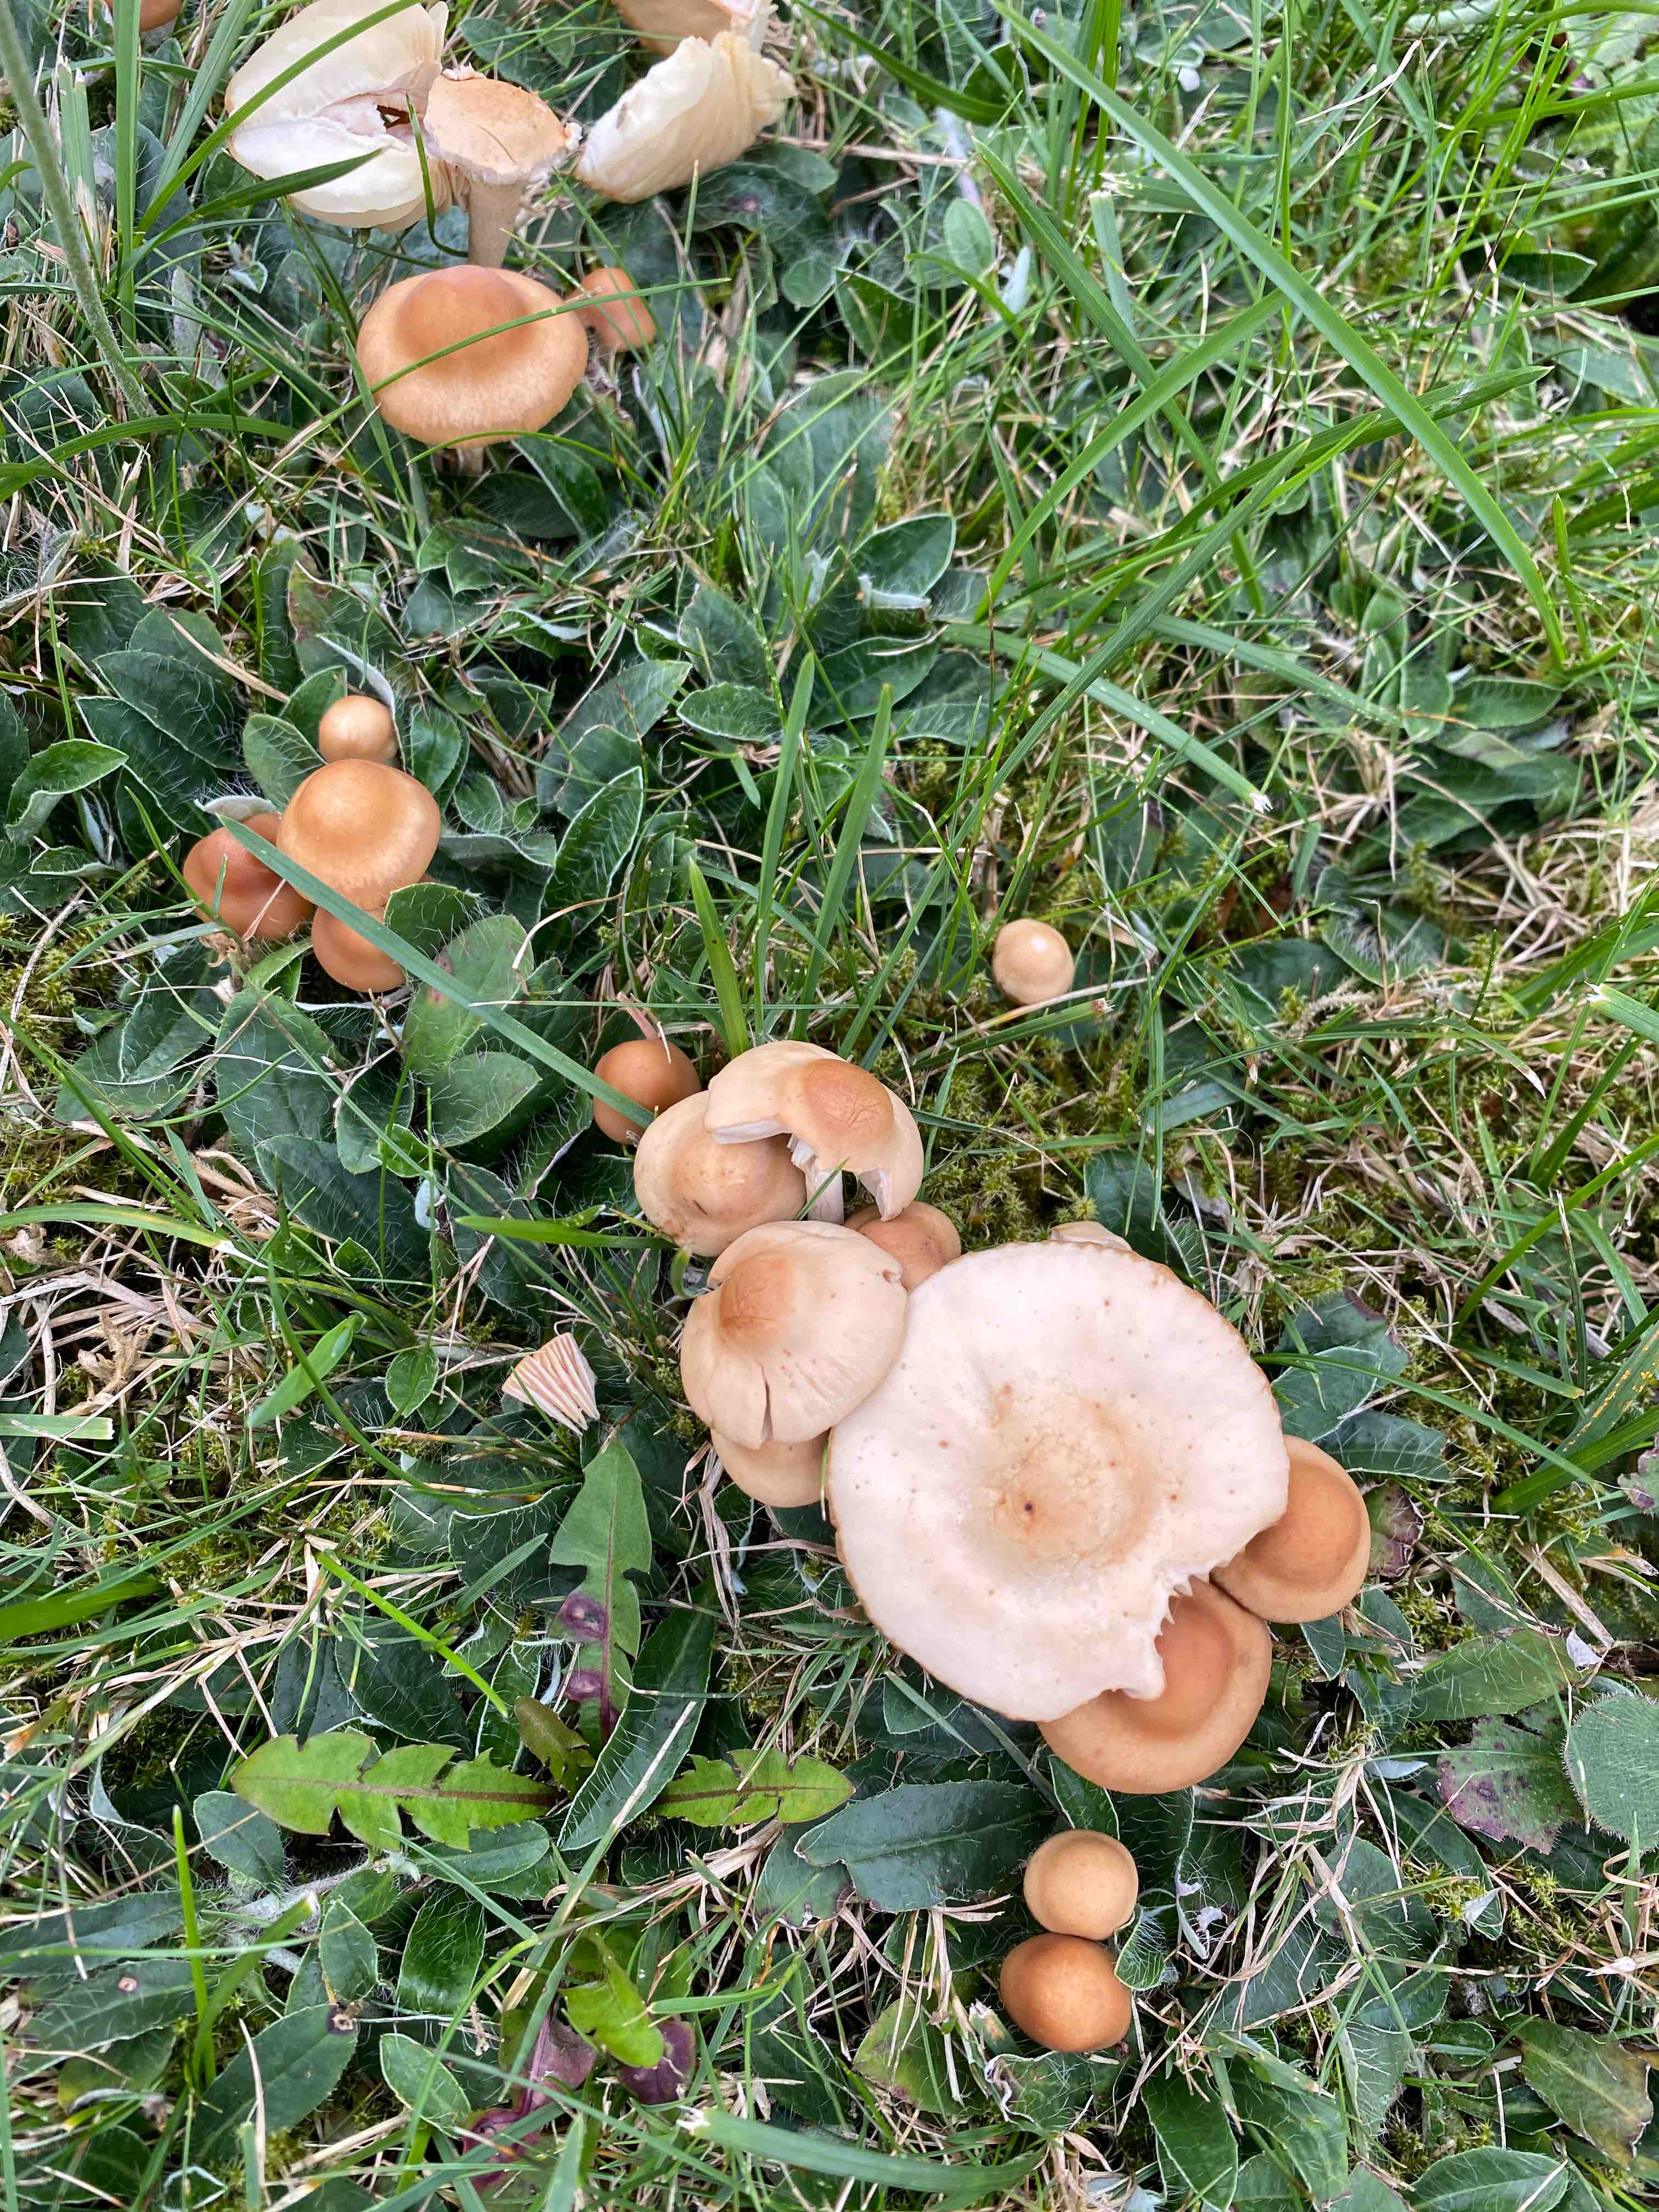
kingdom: Fungi
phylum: Basidiomycota
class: Agaricomycetes
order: Agaricales
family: Marasmiaceae
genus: Marasmius
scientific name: Marasmius oreades
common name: elledans-bruskhat
